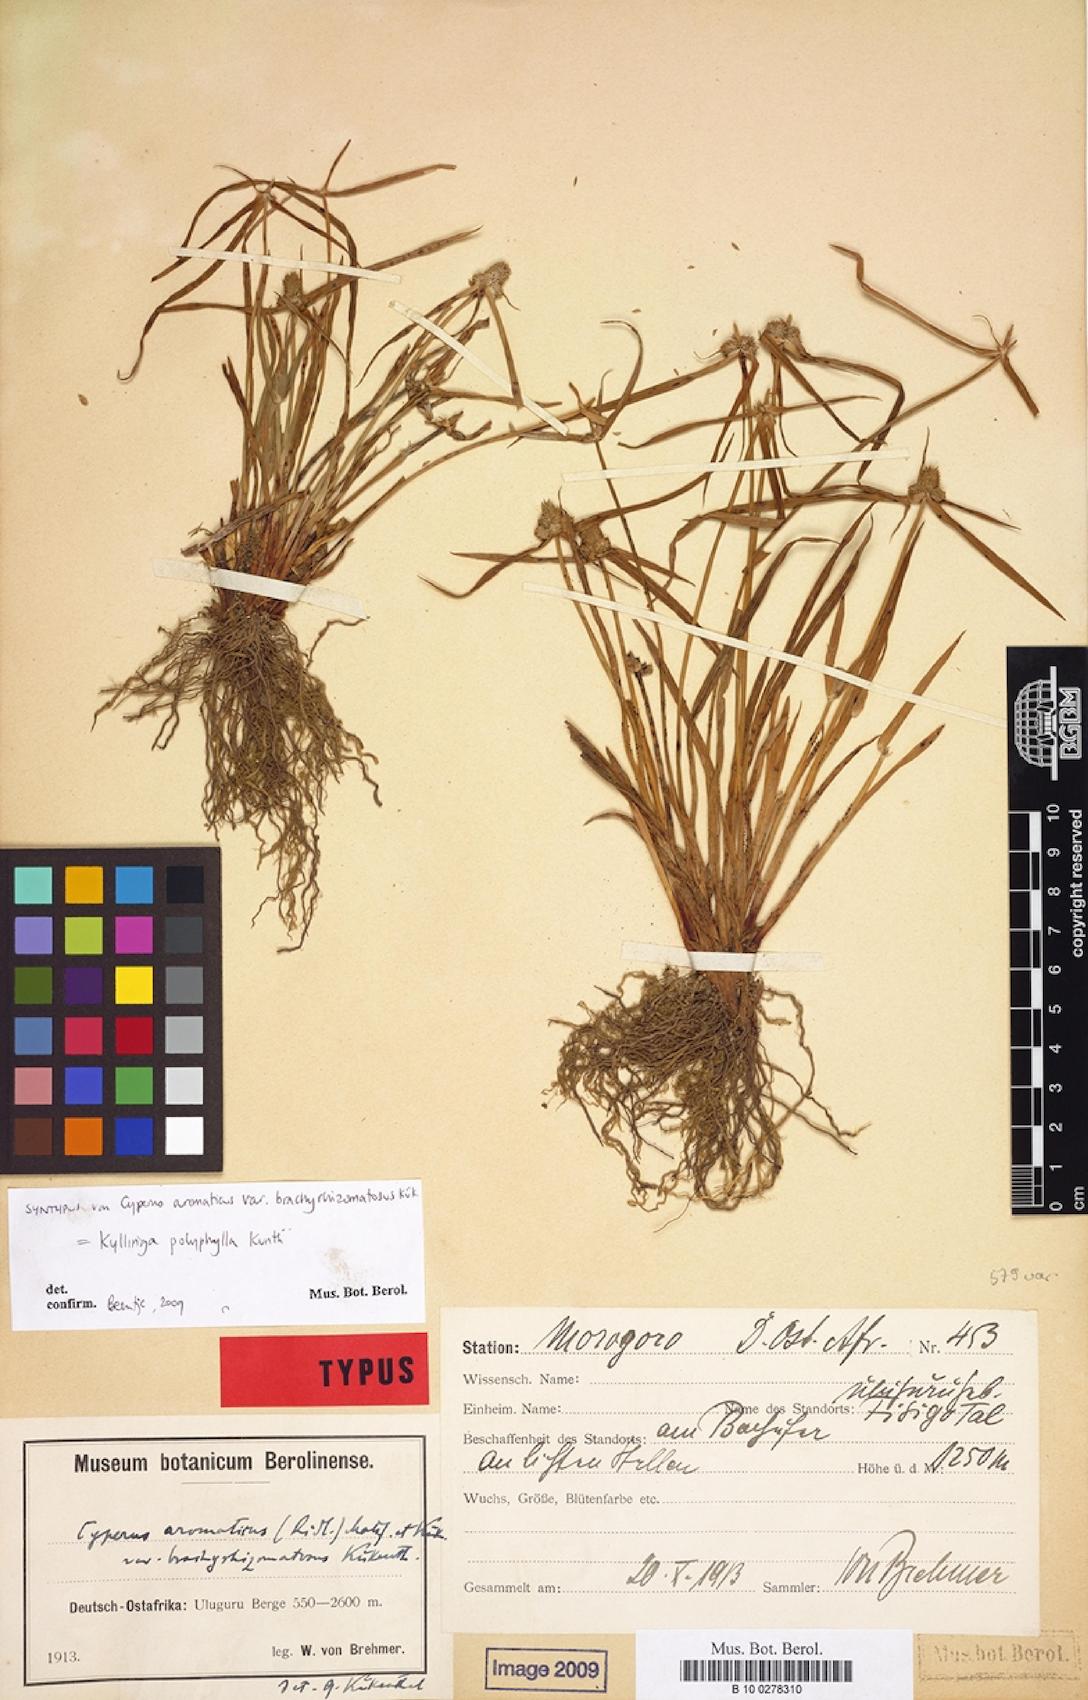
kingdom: Plantae
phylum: Tracheophyta
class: Liliopsida
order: Poales
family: Cyperaceae
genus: Cyperus
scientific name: Cyperus aromaticus
